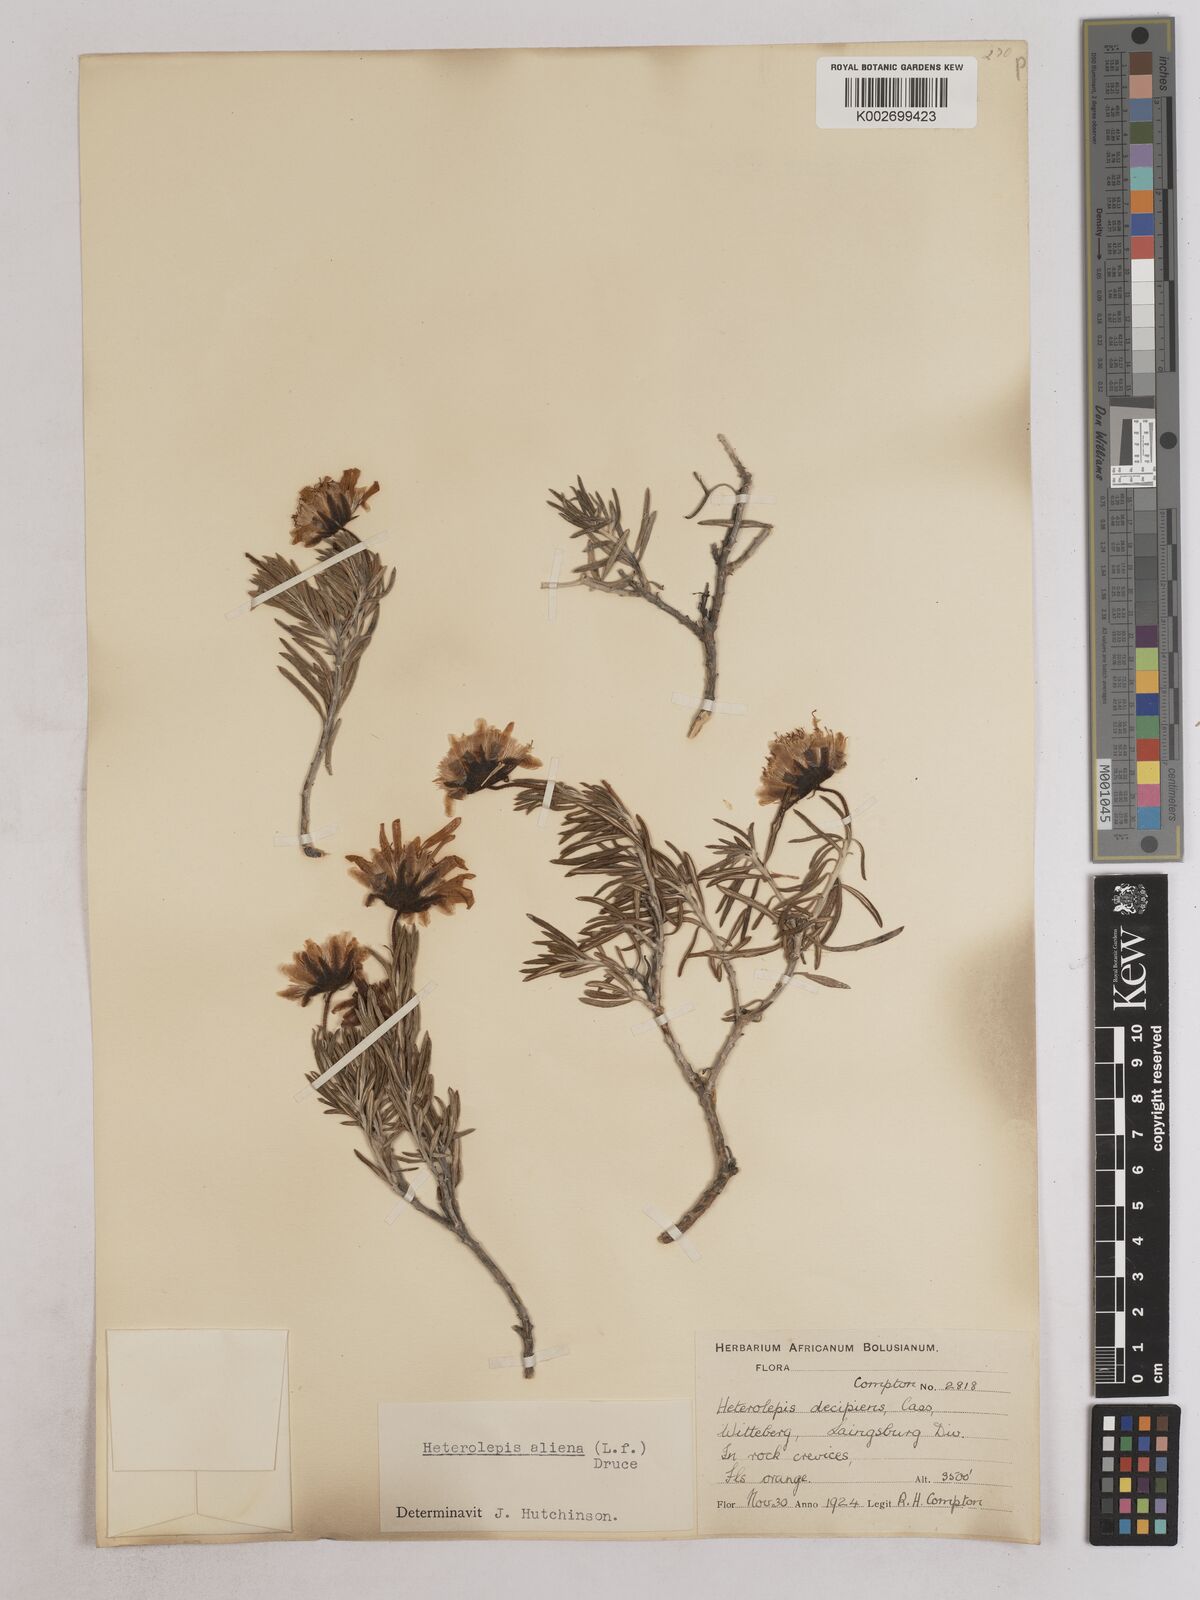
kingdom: Plantae
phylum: Tracheophyta
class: Magnoliopsida
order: Asterales
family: Asteraceae
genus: Heterolepis
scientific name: Heterolepis aliena
